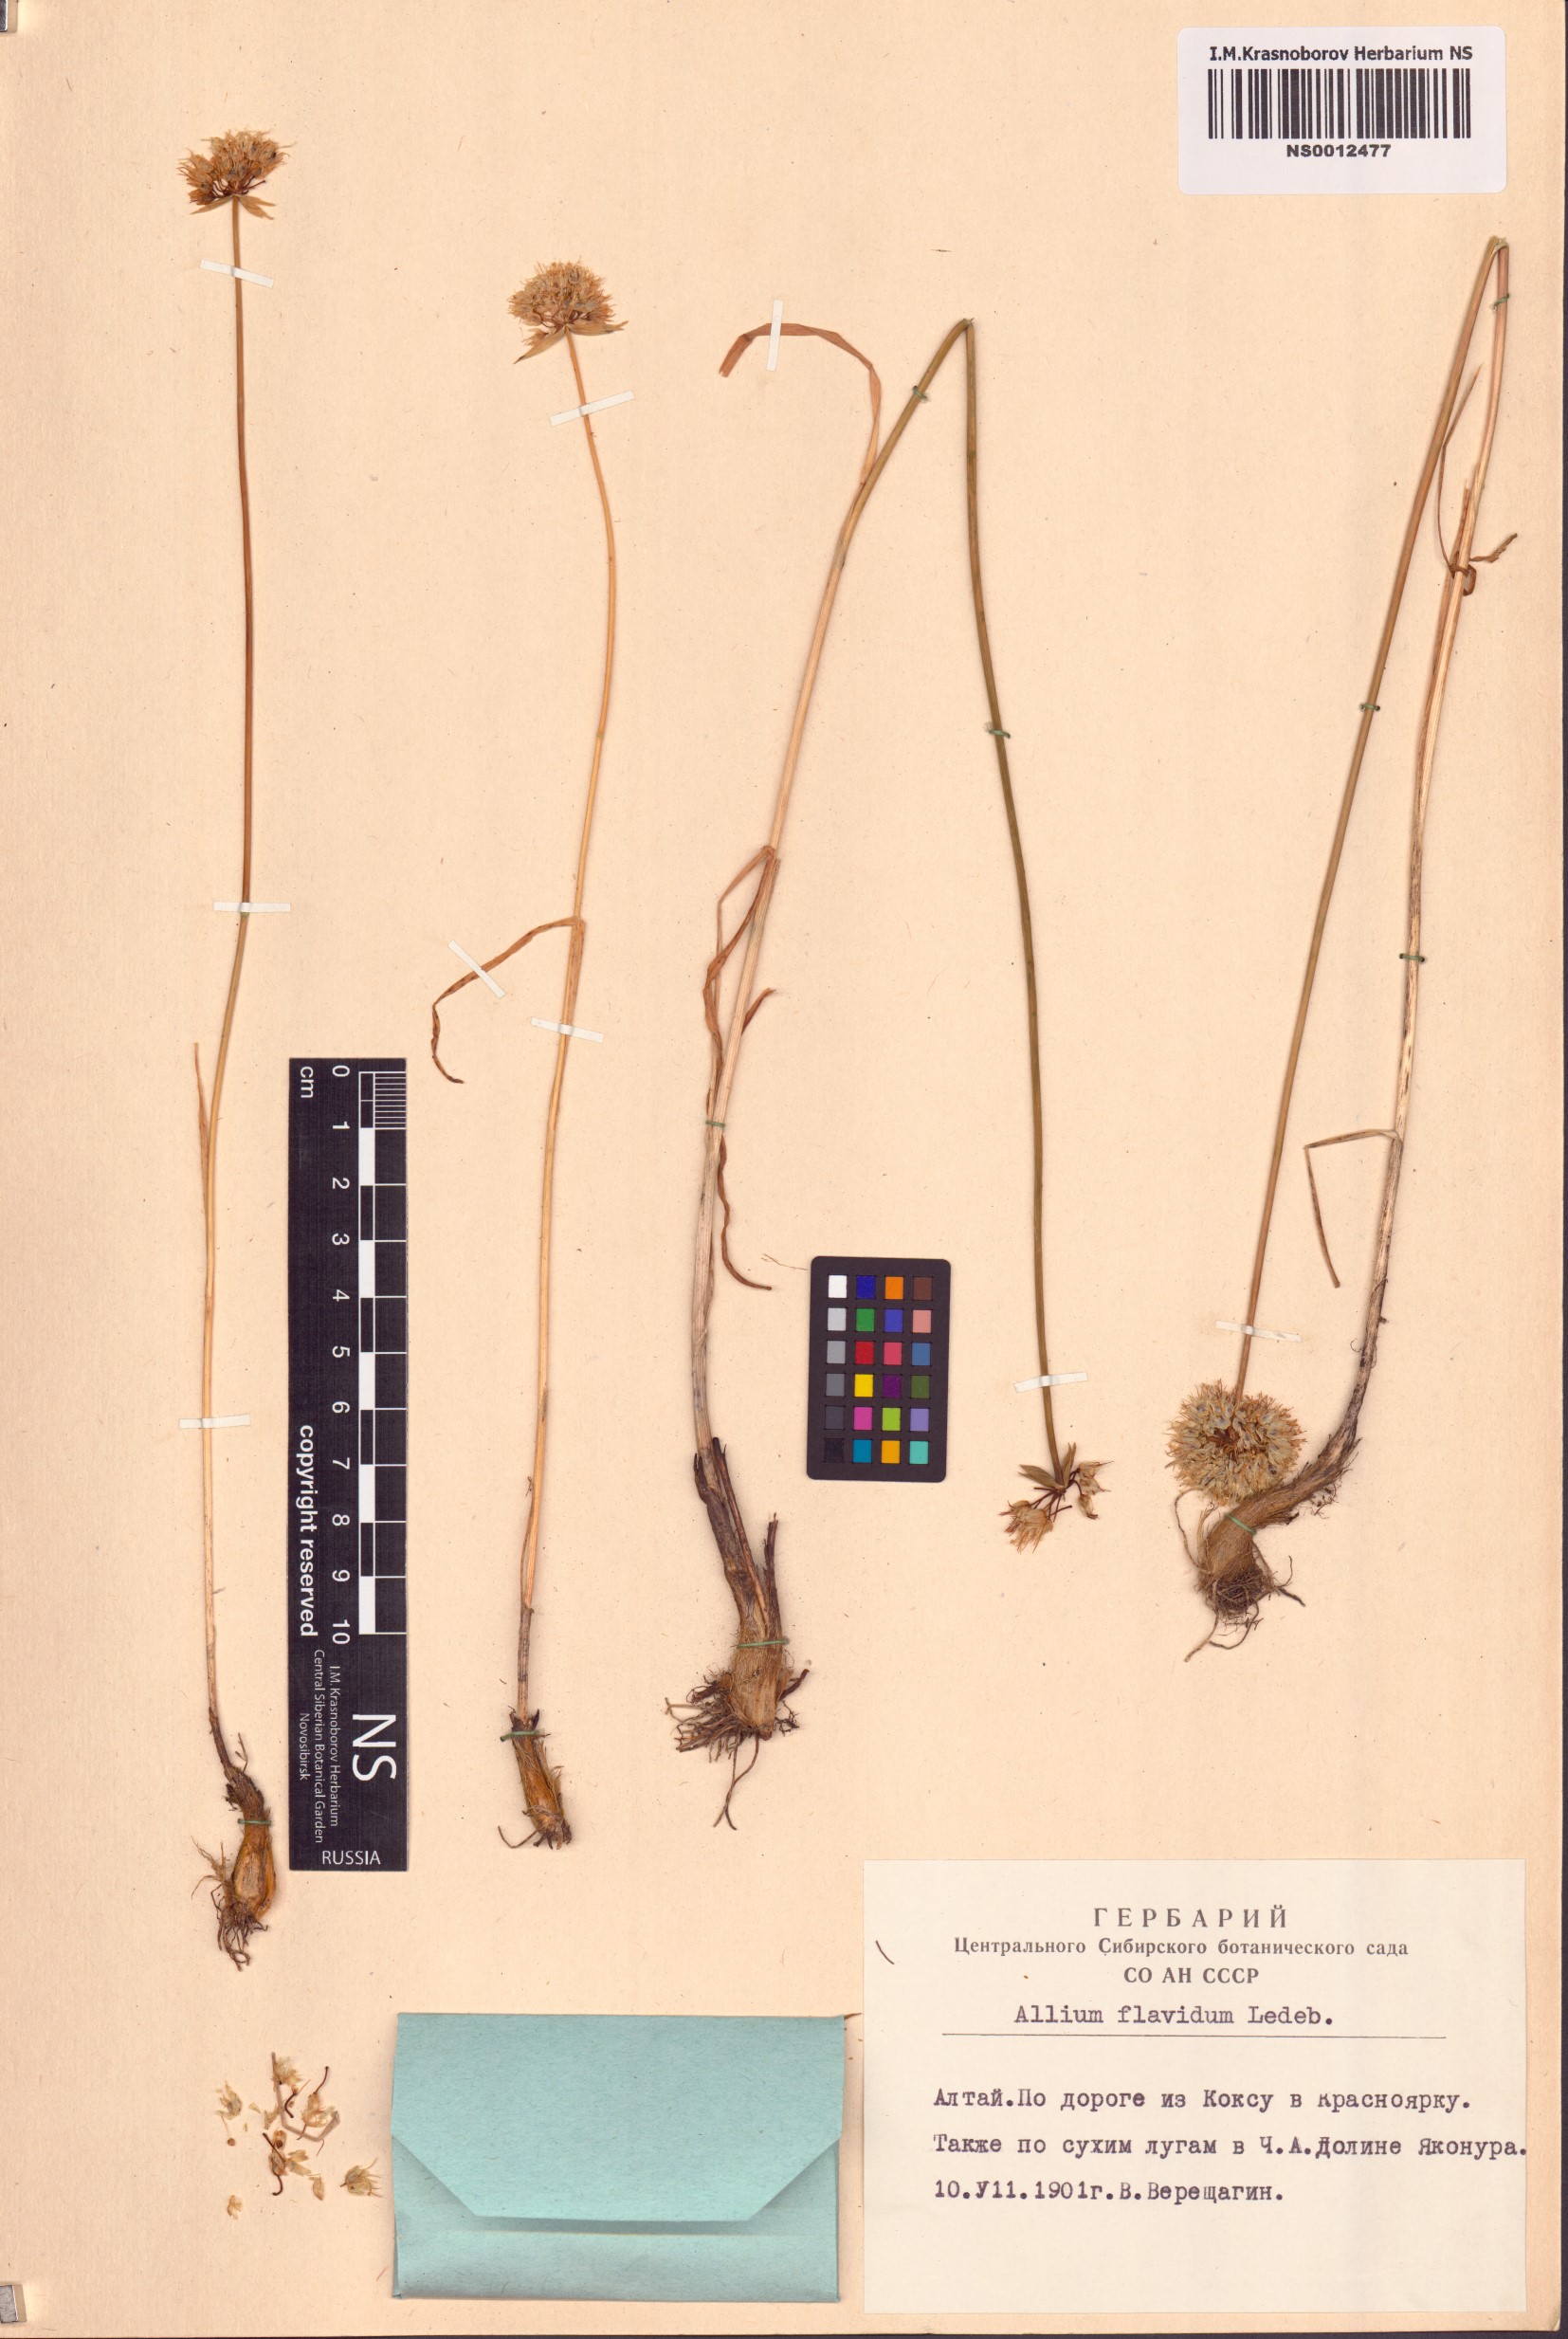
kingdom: Plantae
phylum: Tracheophyta
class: Liliopsida
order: Asparagales
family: Amaryllidaceae
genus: Allium
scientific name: Allium flavidum
